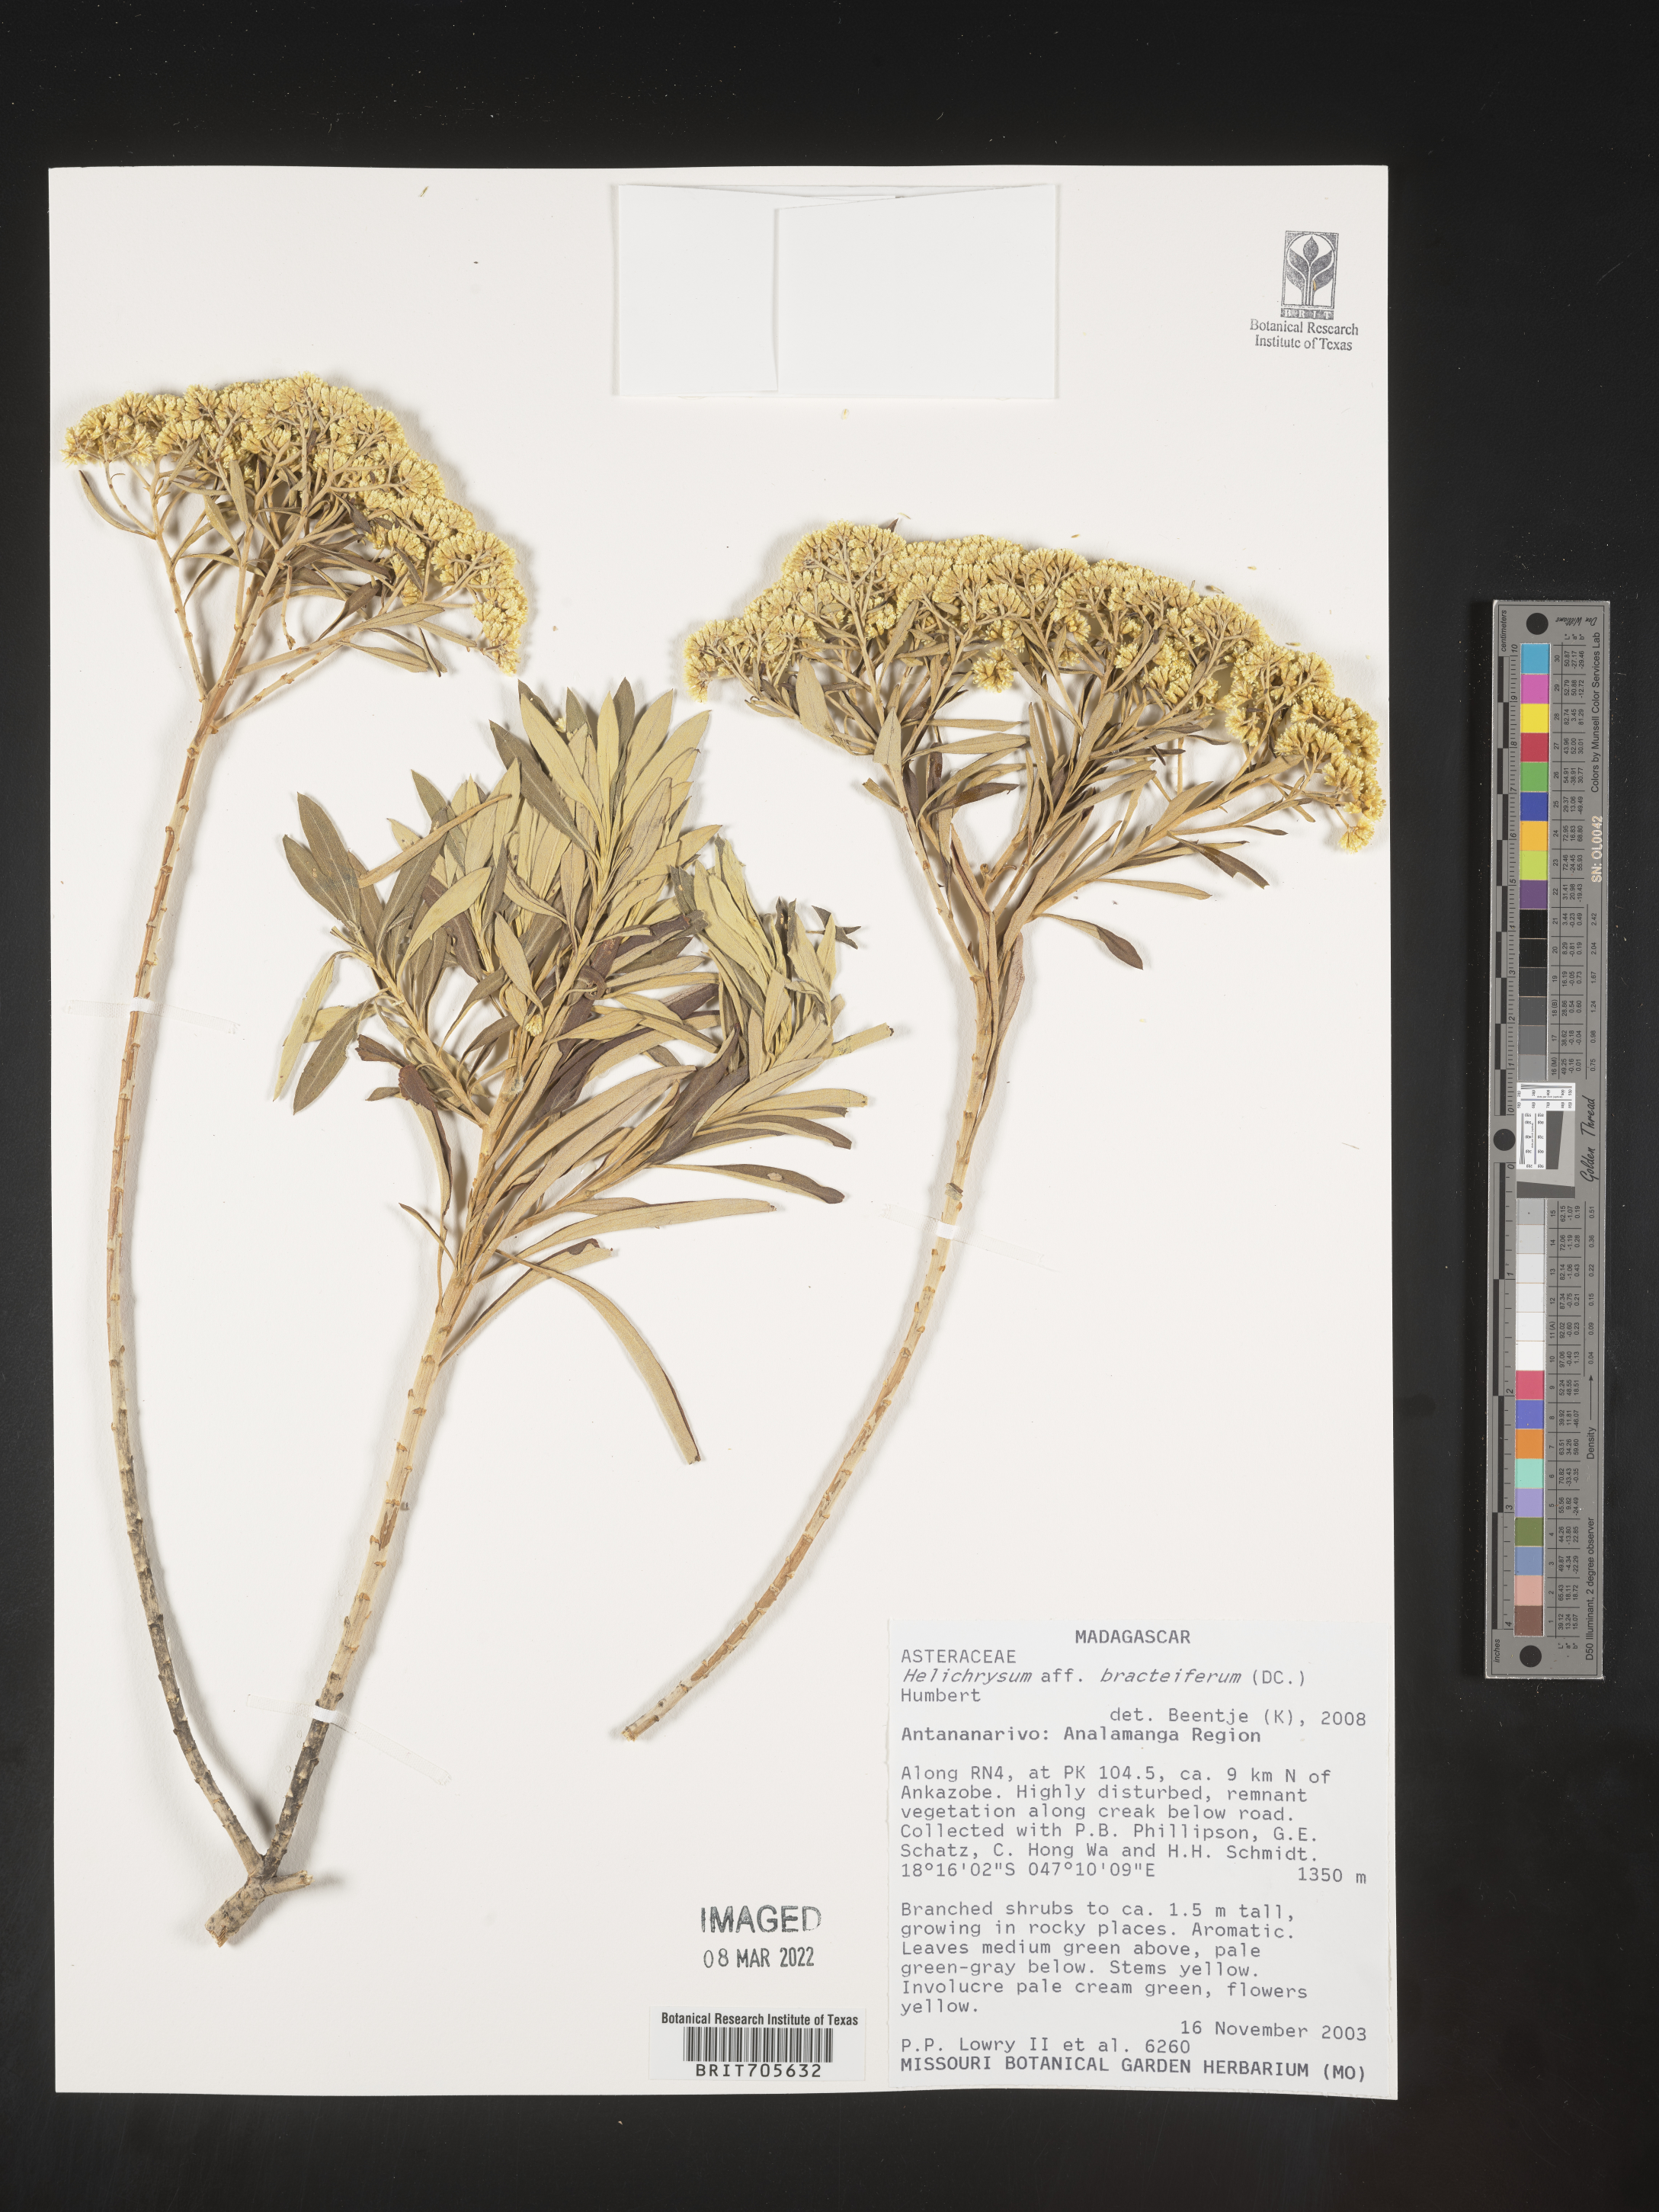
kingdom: Plantae
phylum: Tracheophyta
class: Magnoliopsida
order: Asterales
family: Asteraceae
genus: Helichrysum
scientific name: Helichrysum
